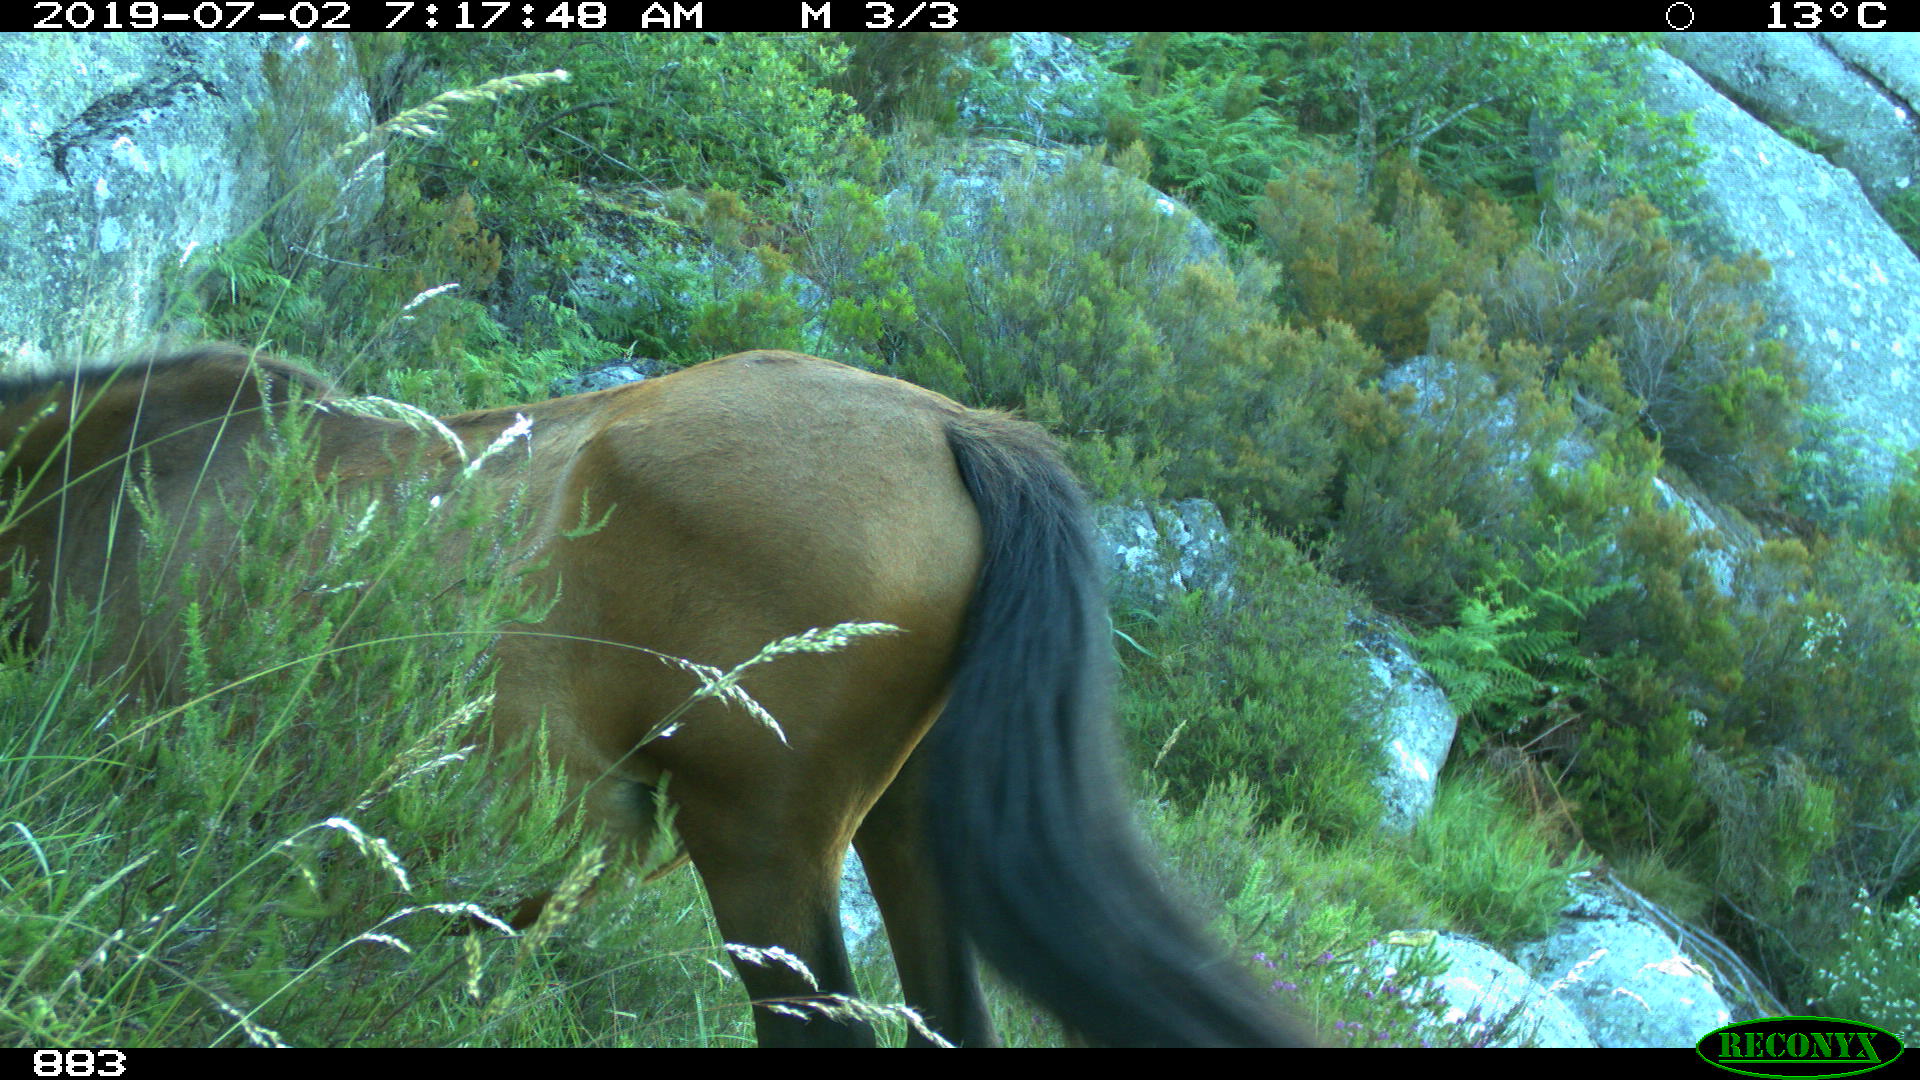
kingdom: Animalia
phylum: Chordata
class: Mammalia
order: Perissodactyla
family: Equidae
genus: Equus
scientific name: Equus caballus
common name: Horse
